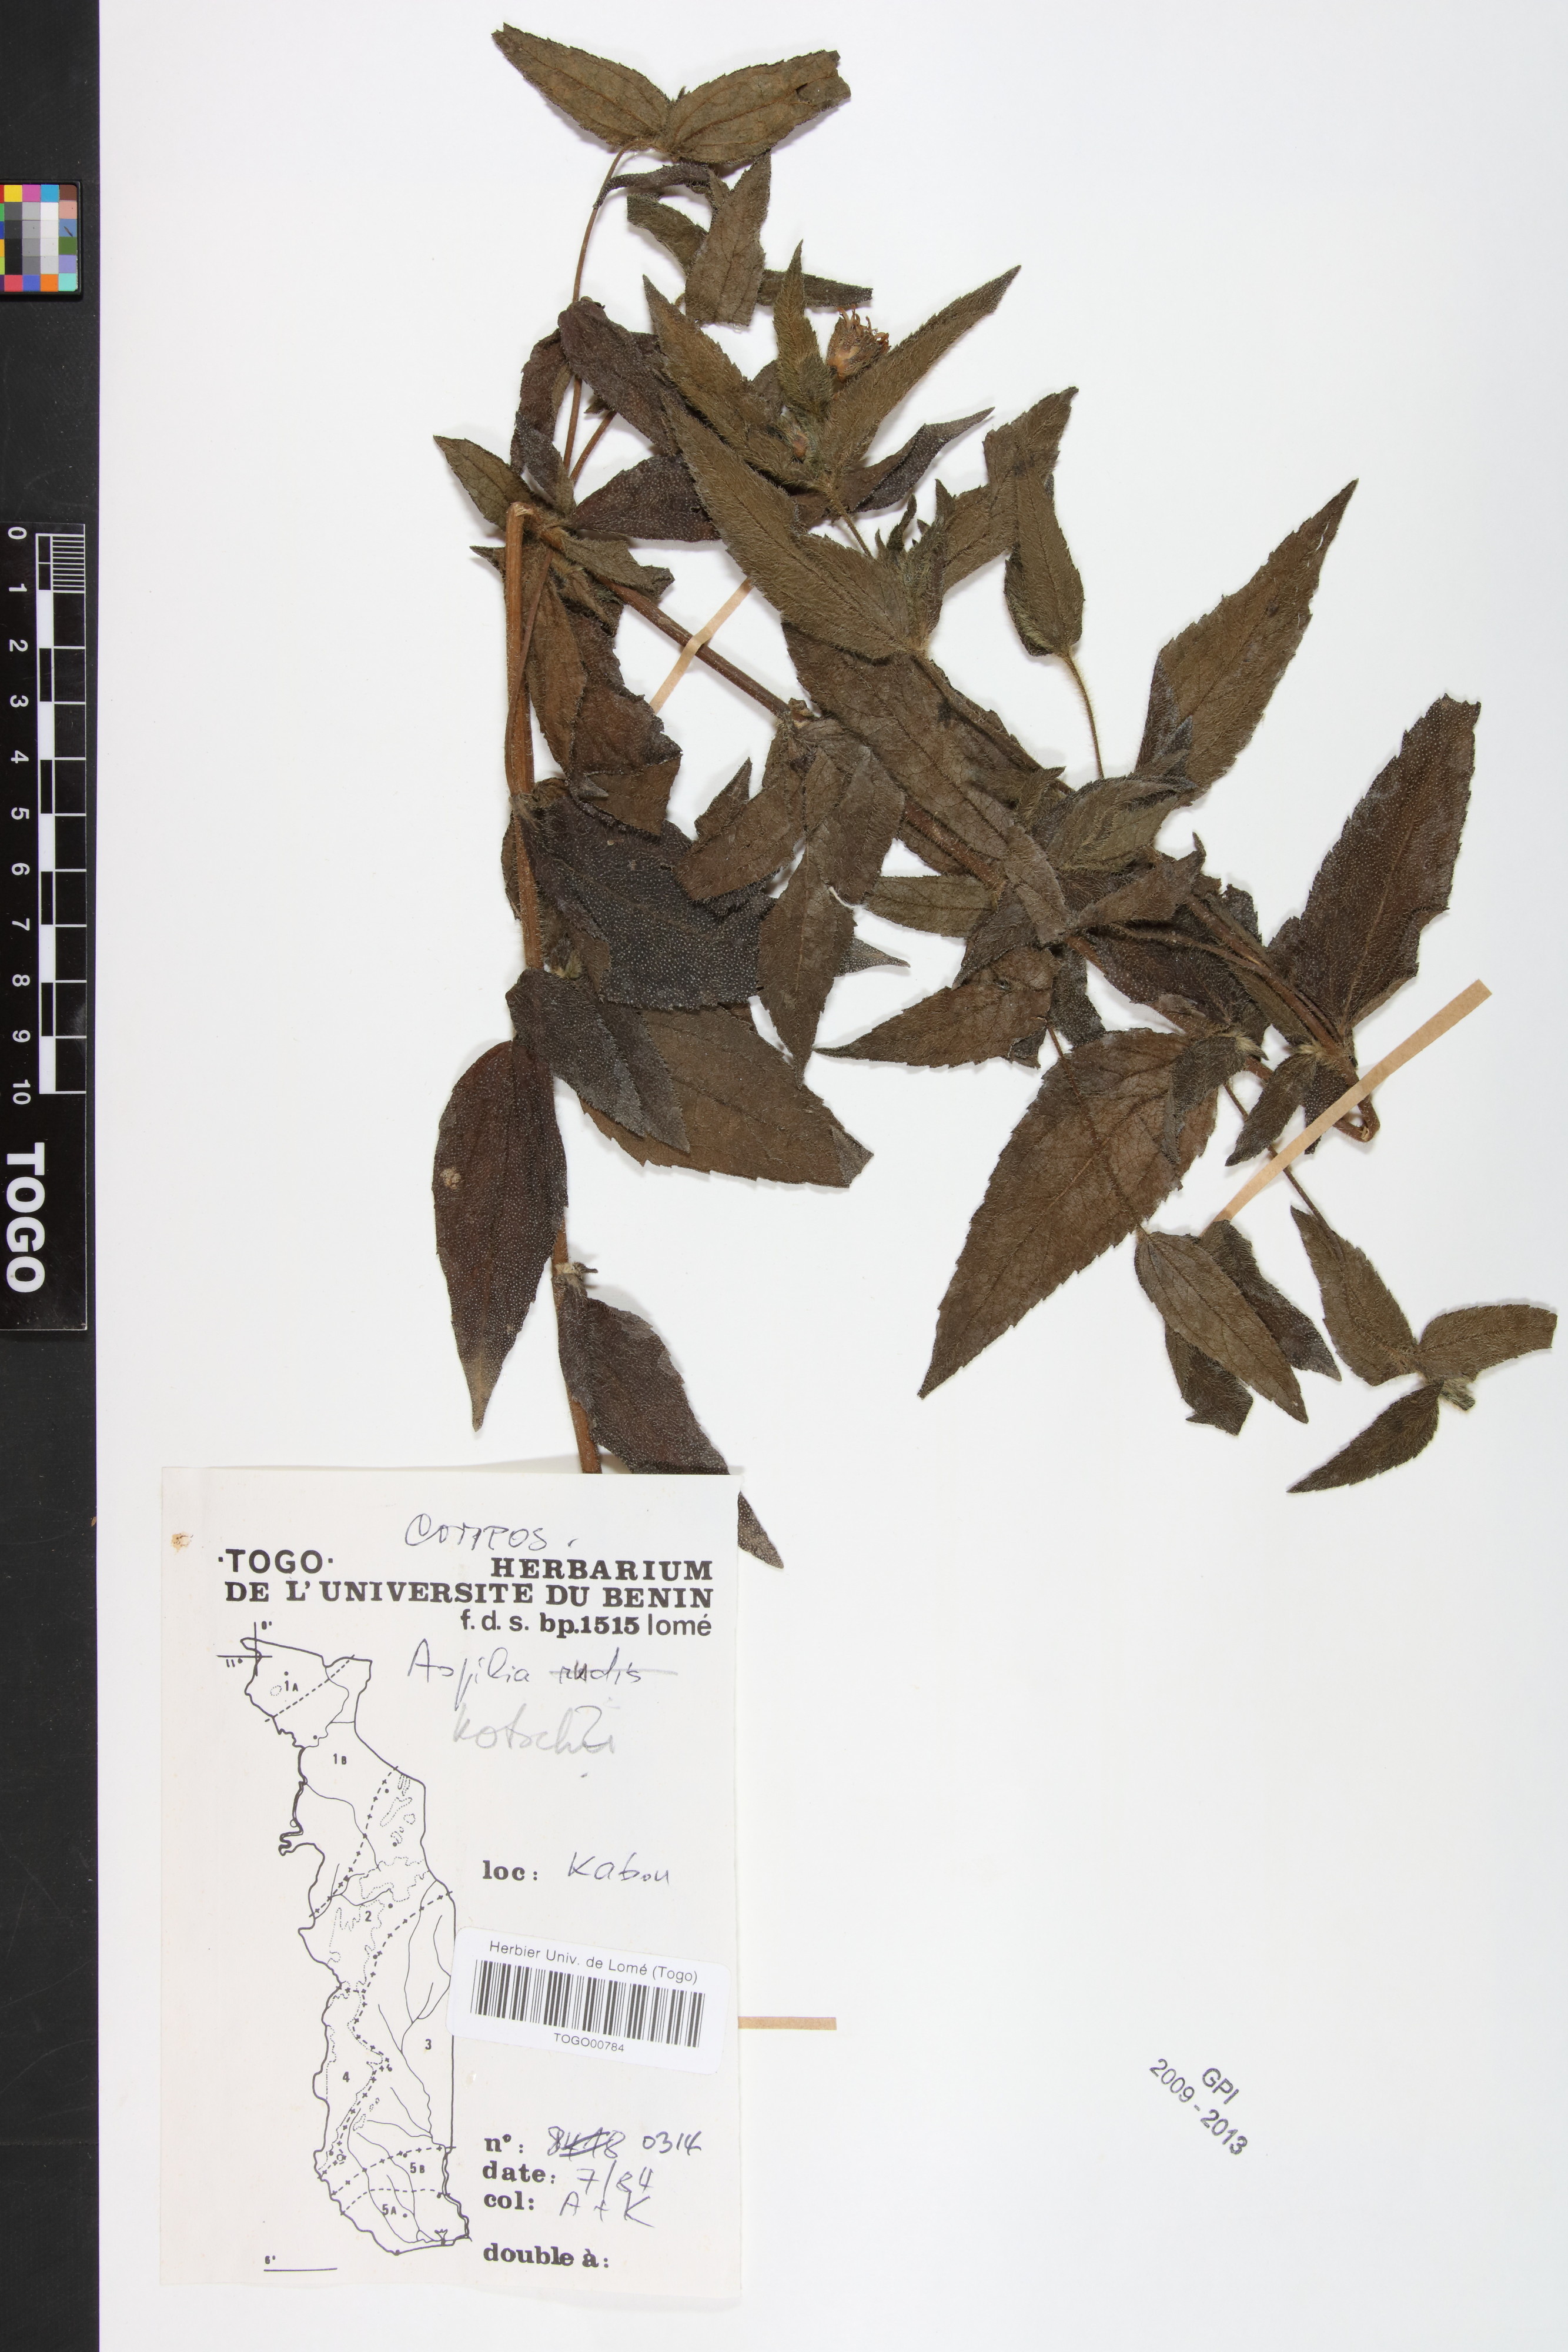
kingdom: Plantae
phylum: Tracheophyta
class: Magnoliopsida
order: Asterales
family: Asteraceae
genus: Aspilia
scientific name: Aspilia kotschyi
